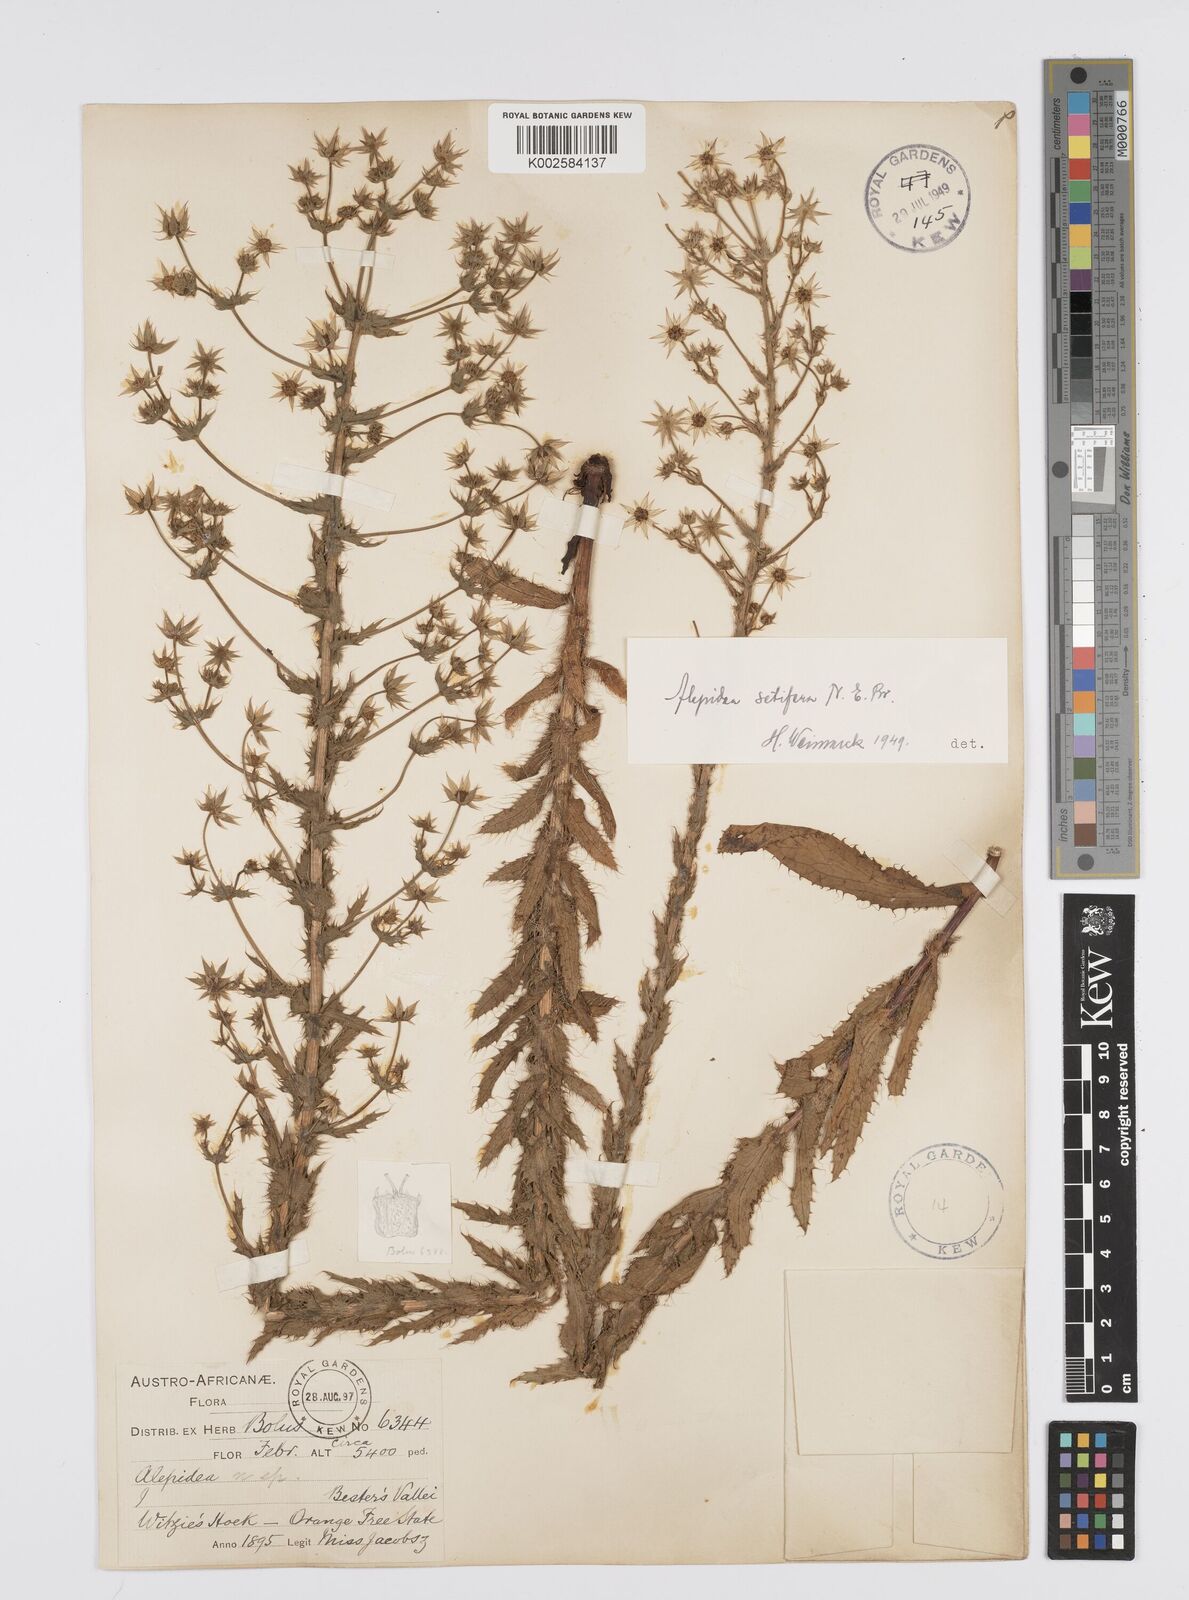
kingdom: Plantae
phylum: Tracheophyta
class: Magnoliopsida
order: Apiales
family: Apiaceae
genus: Alepidea
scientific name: Alepidea setifera
